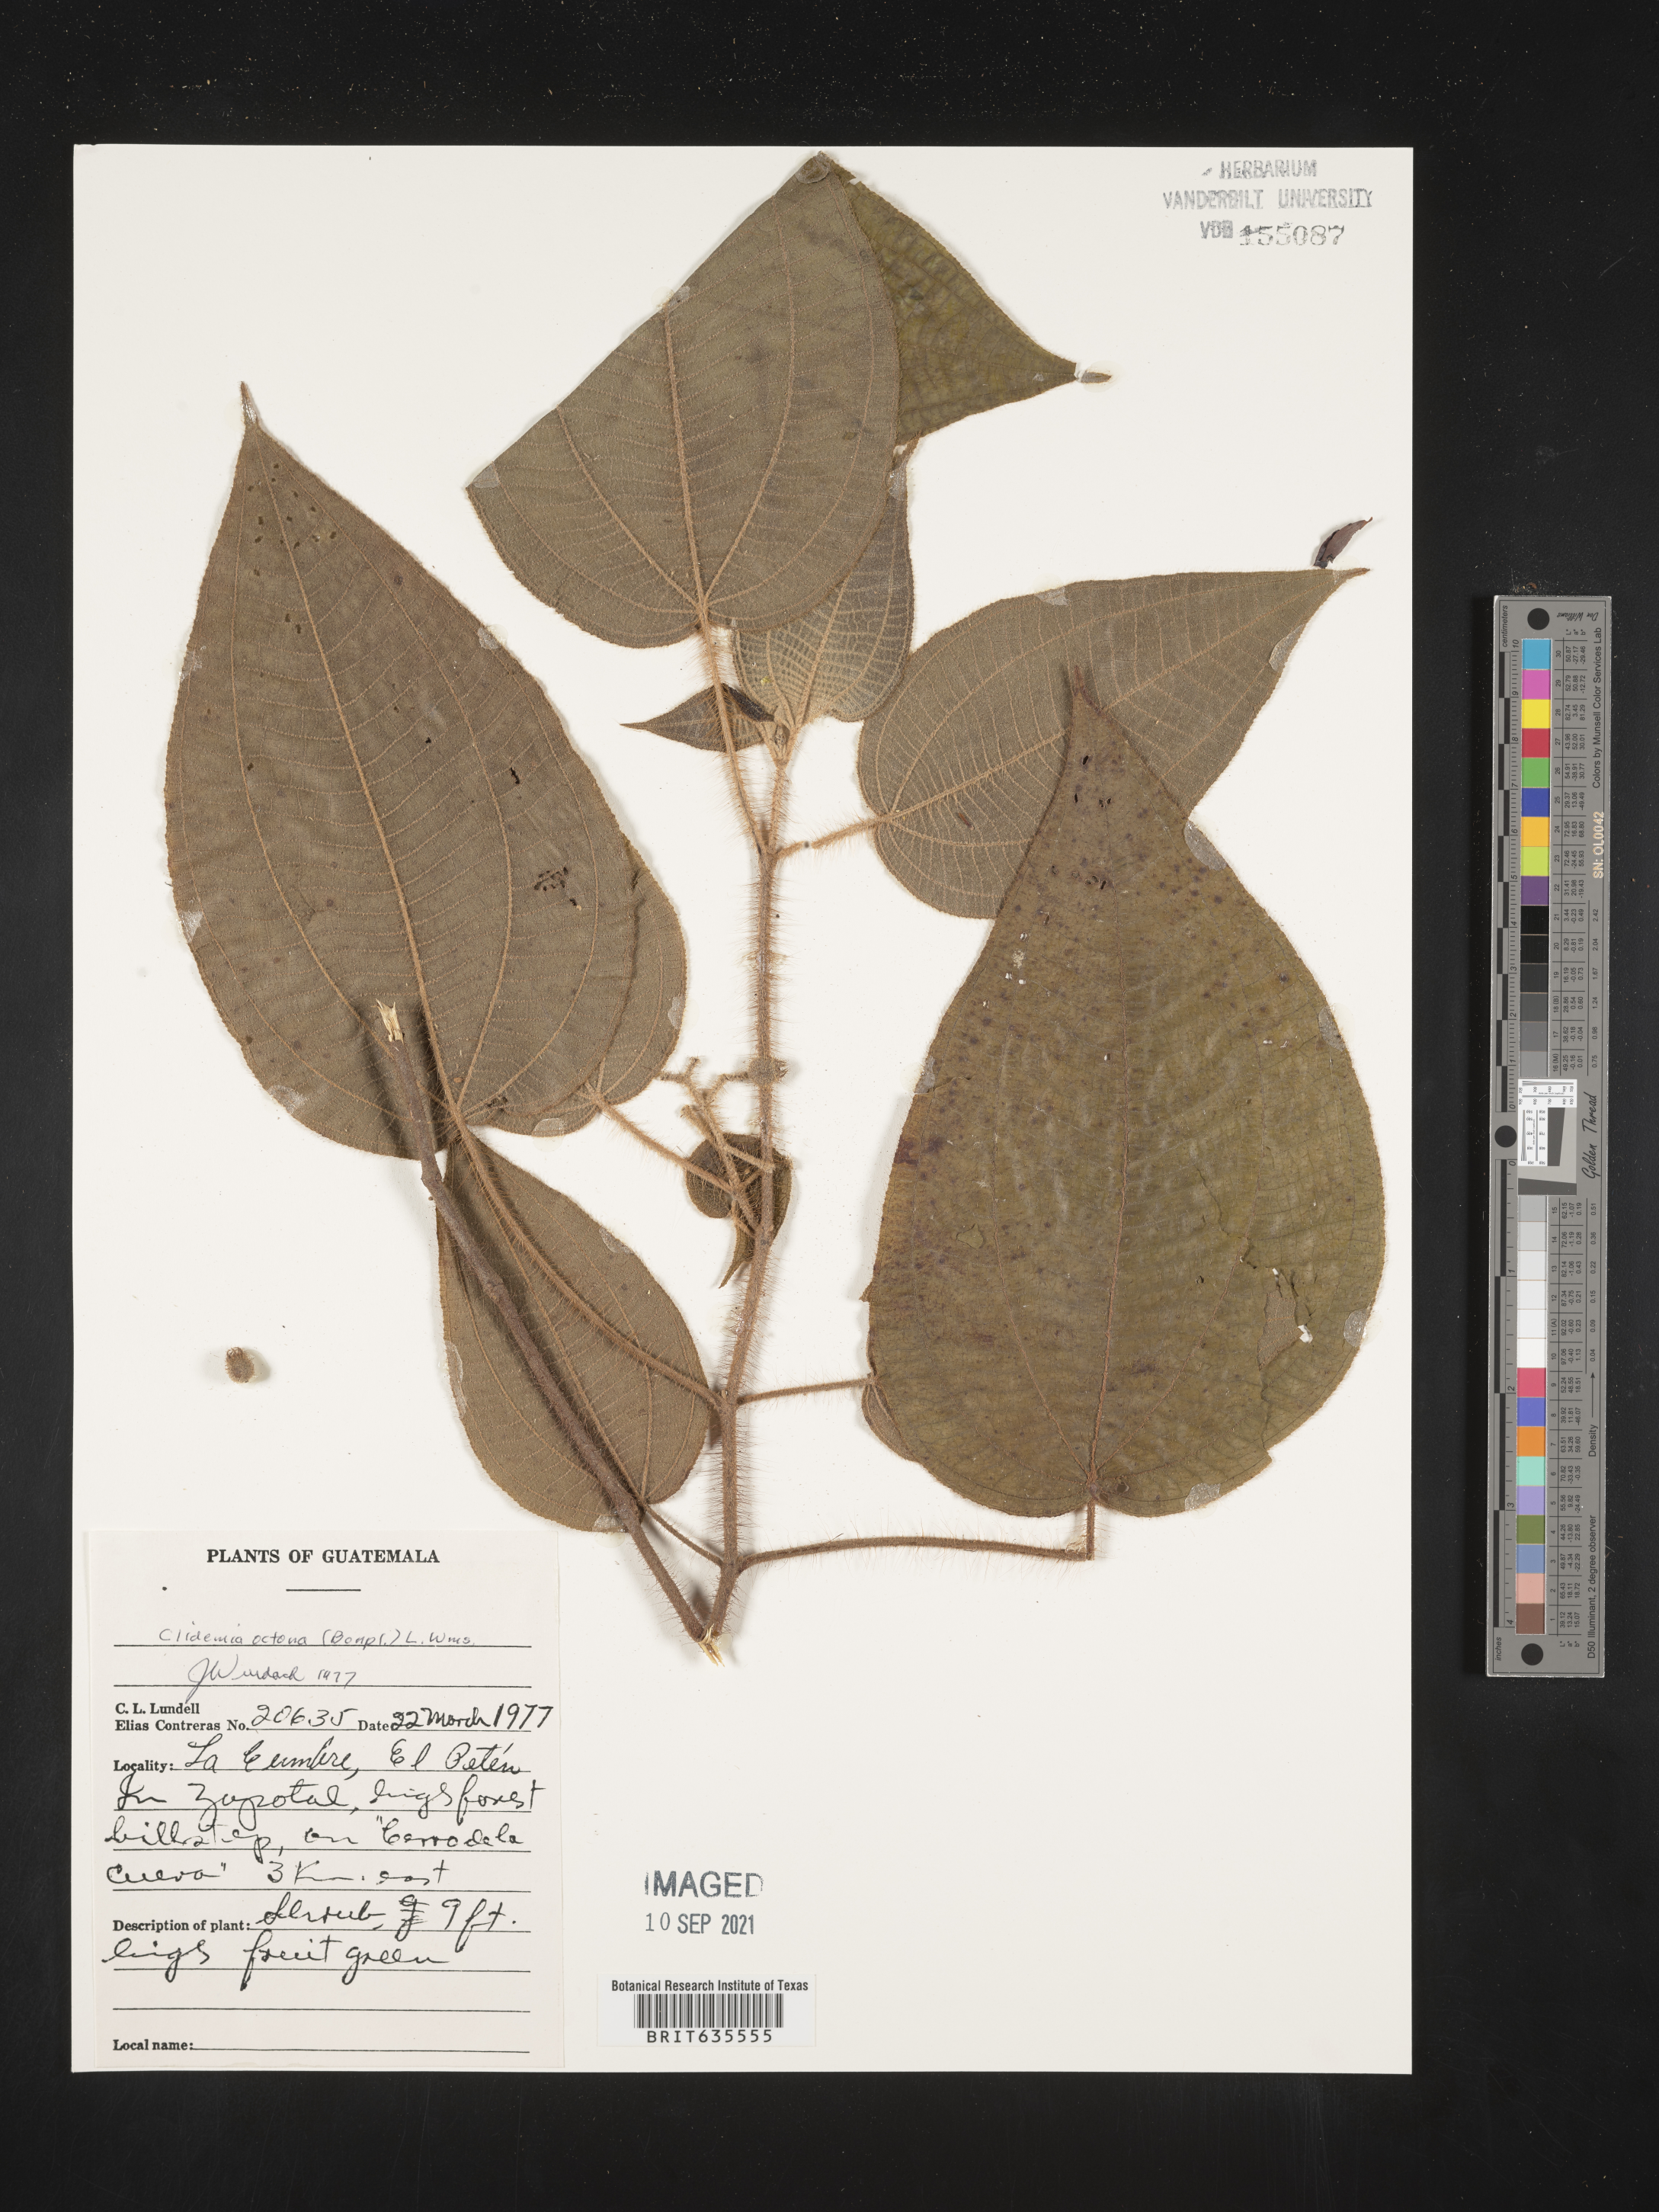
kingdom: Plantae
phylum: Tracheophyta
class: Magnoliopsida
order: Myrtales
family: Melastomataceae
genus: Miconia
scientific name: Miconia
